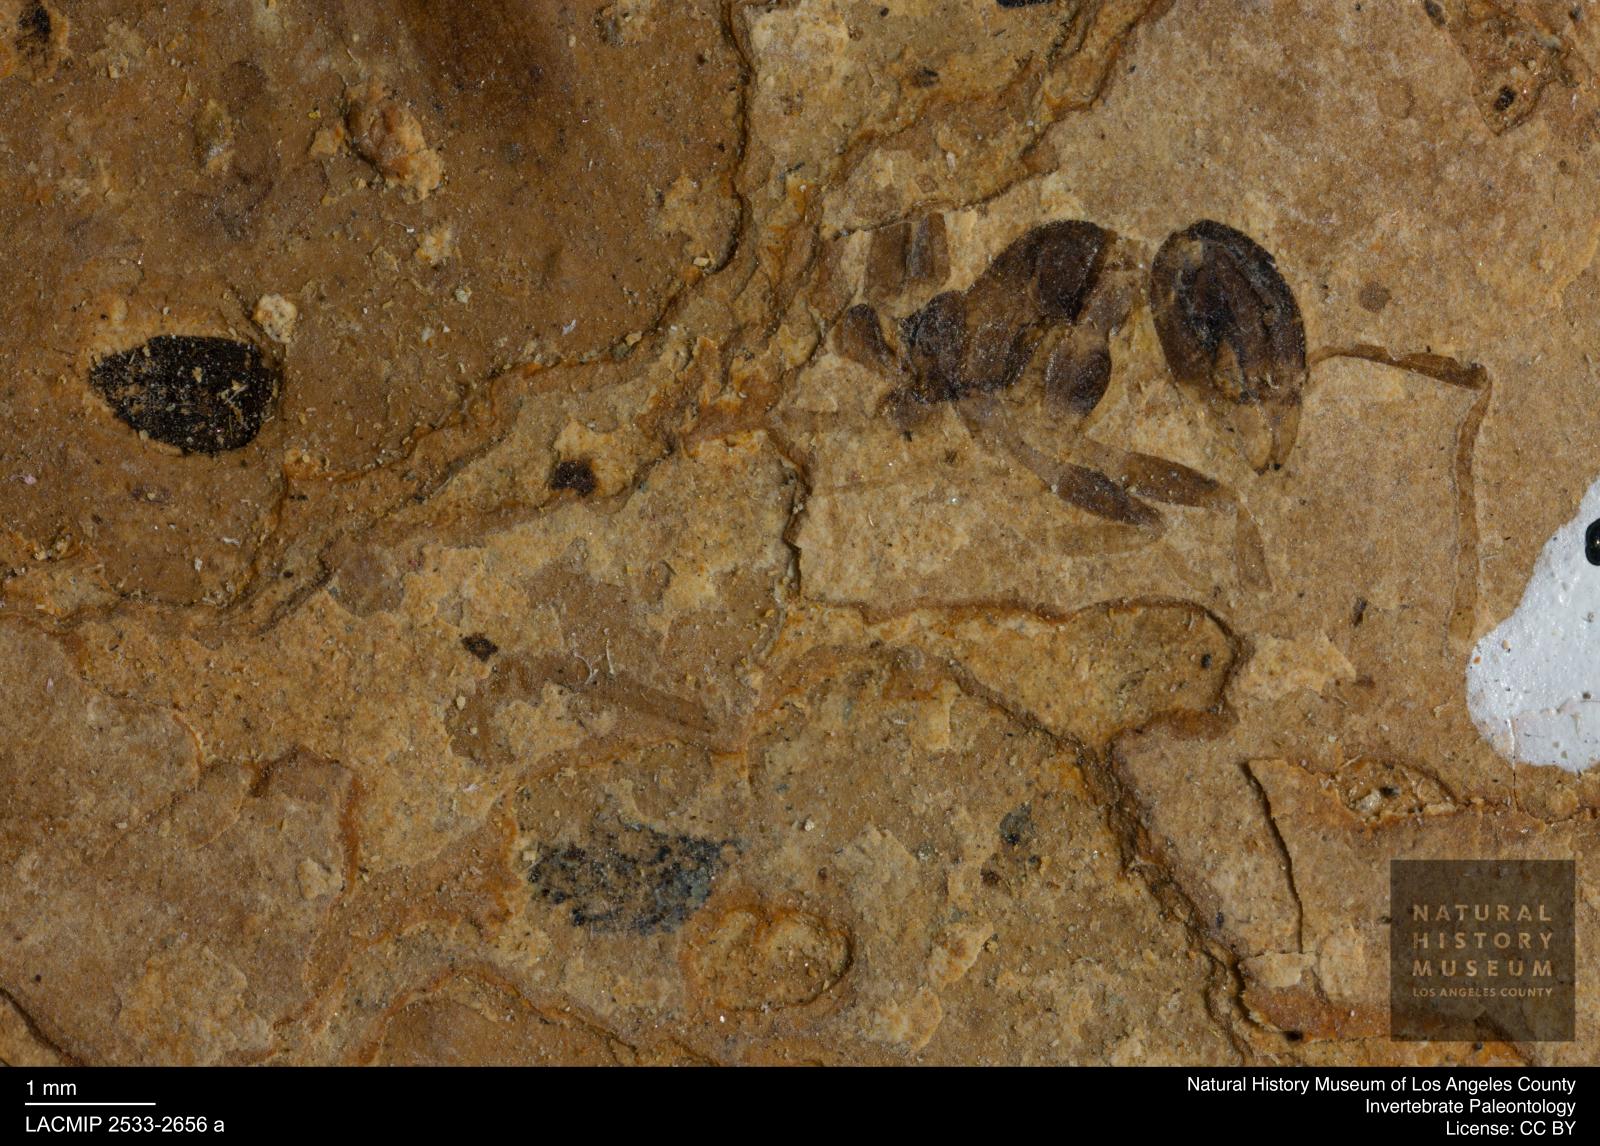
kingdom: Animalia
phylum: Arthropoda
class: Insecta
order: Hymenoptera
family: Formicidae
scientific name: Formicidae
